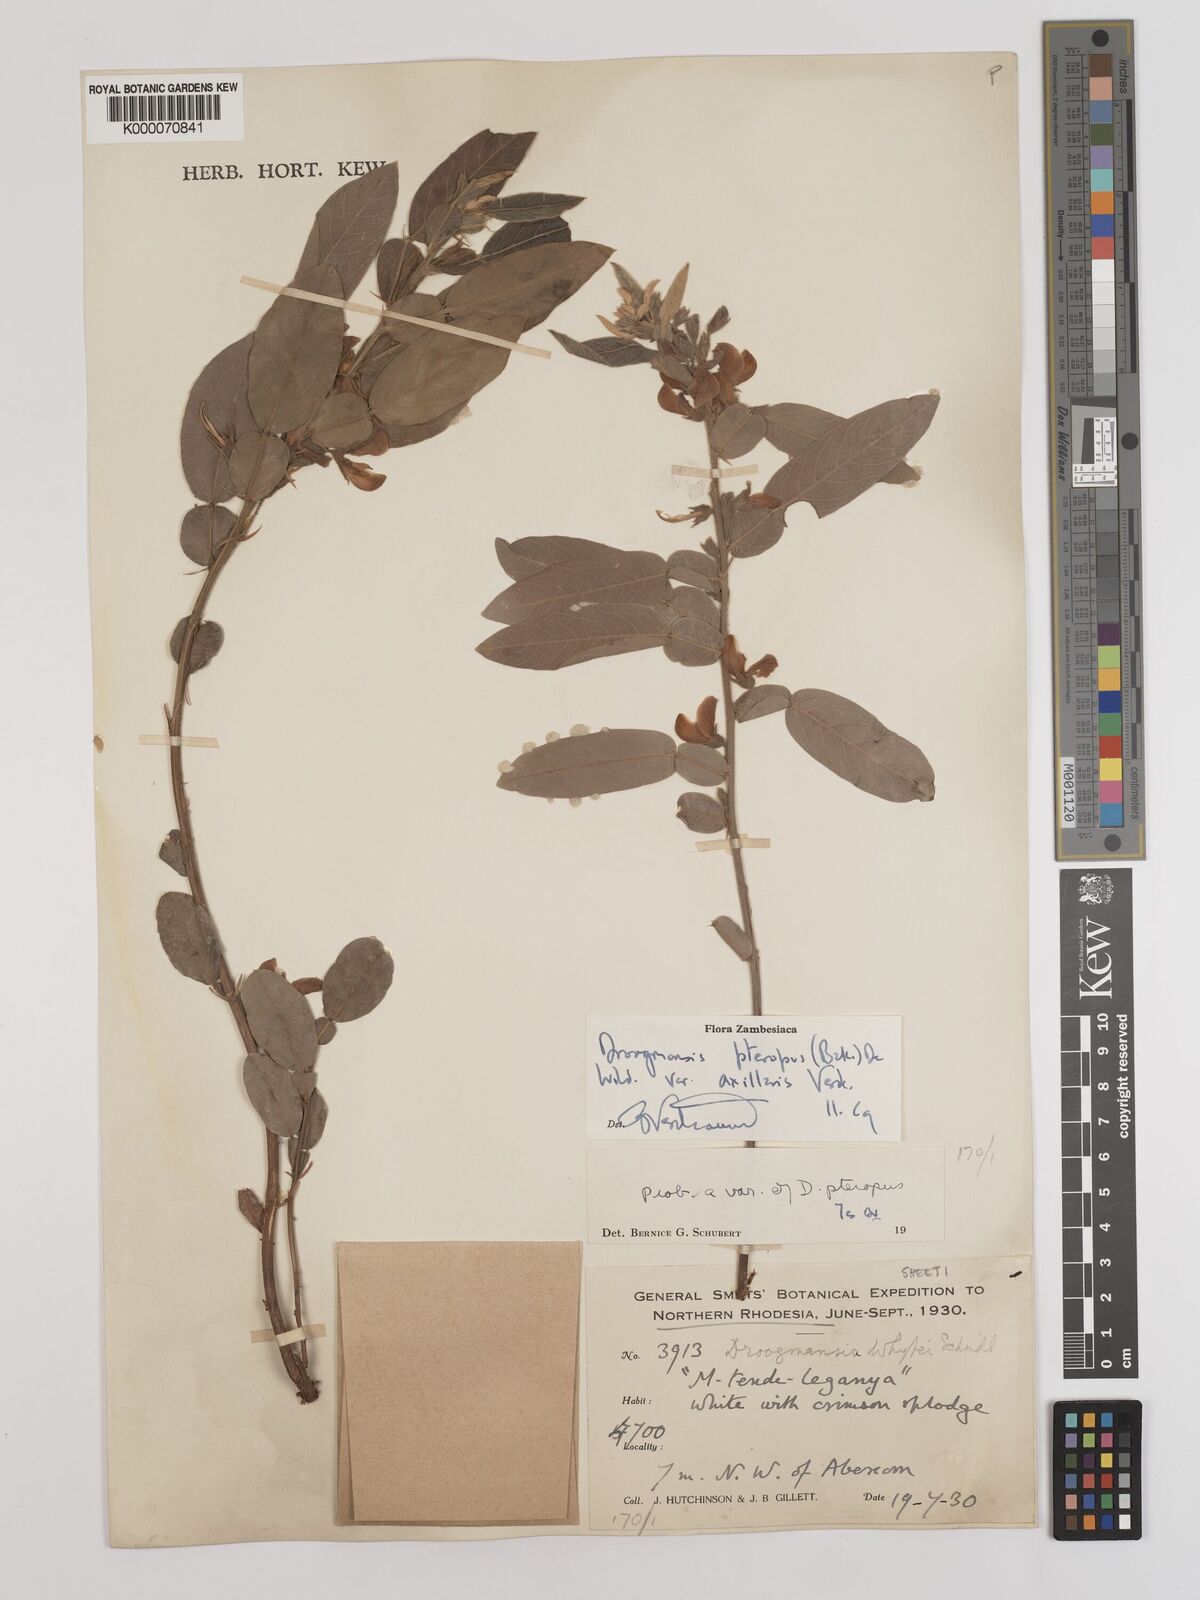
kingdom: Plantae
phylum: Tracheophyta
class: Magnoliopsida
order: Fabales
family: Fabaceae
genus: Droogmansia
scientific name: Droogmansia pteropus
